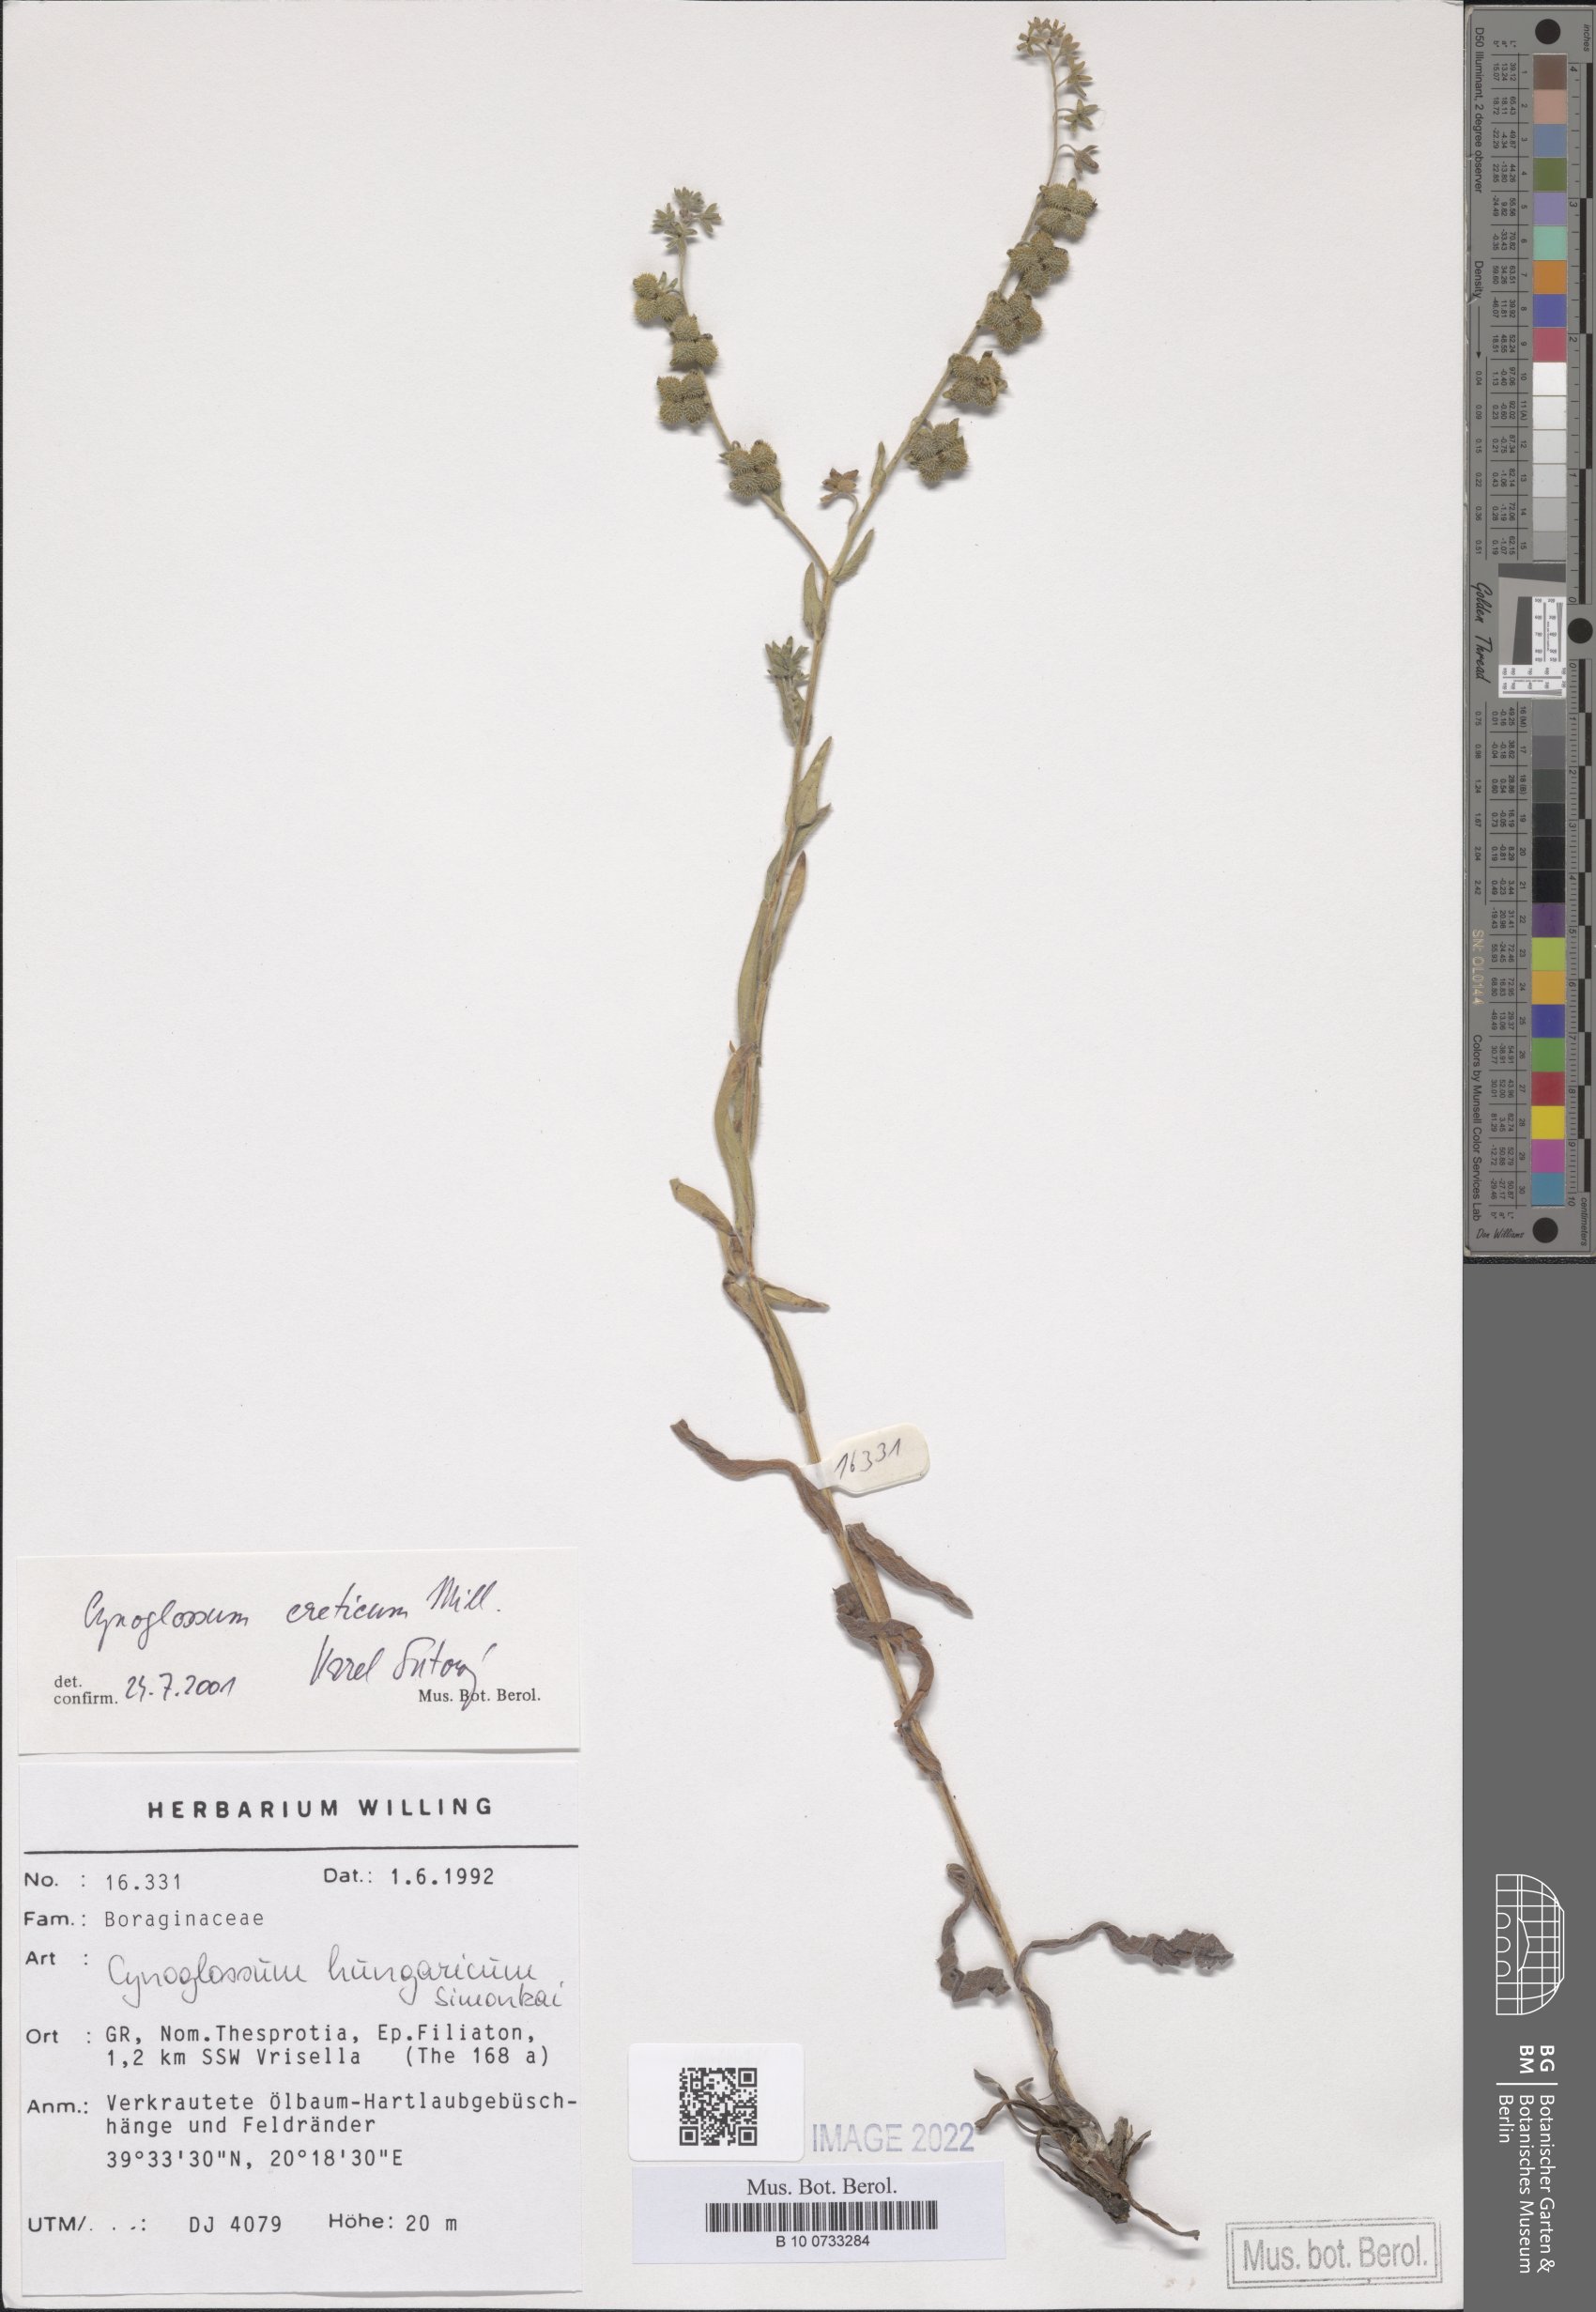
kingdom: Plantae
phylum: Tracheophyta
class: Magnoliopsida
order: Boraginales
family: Boraginaceae
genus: Cynoglossum
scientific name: Cynoglossum creticum
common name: Blue hound's tongue
